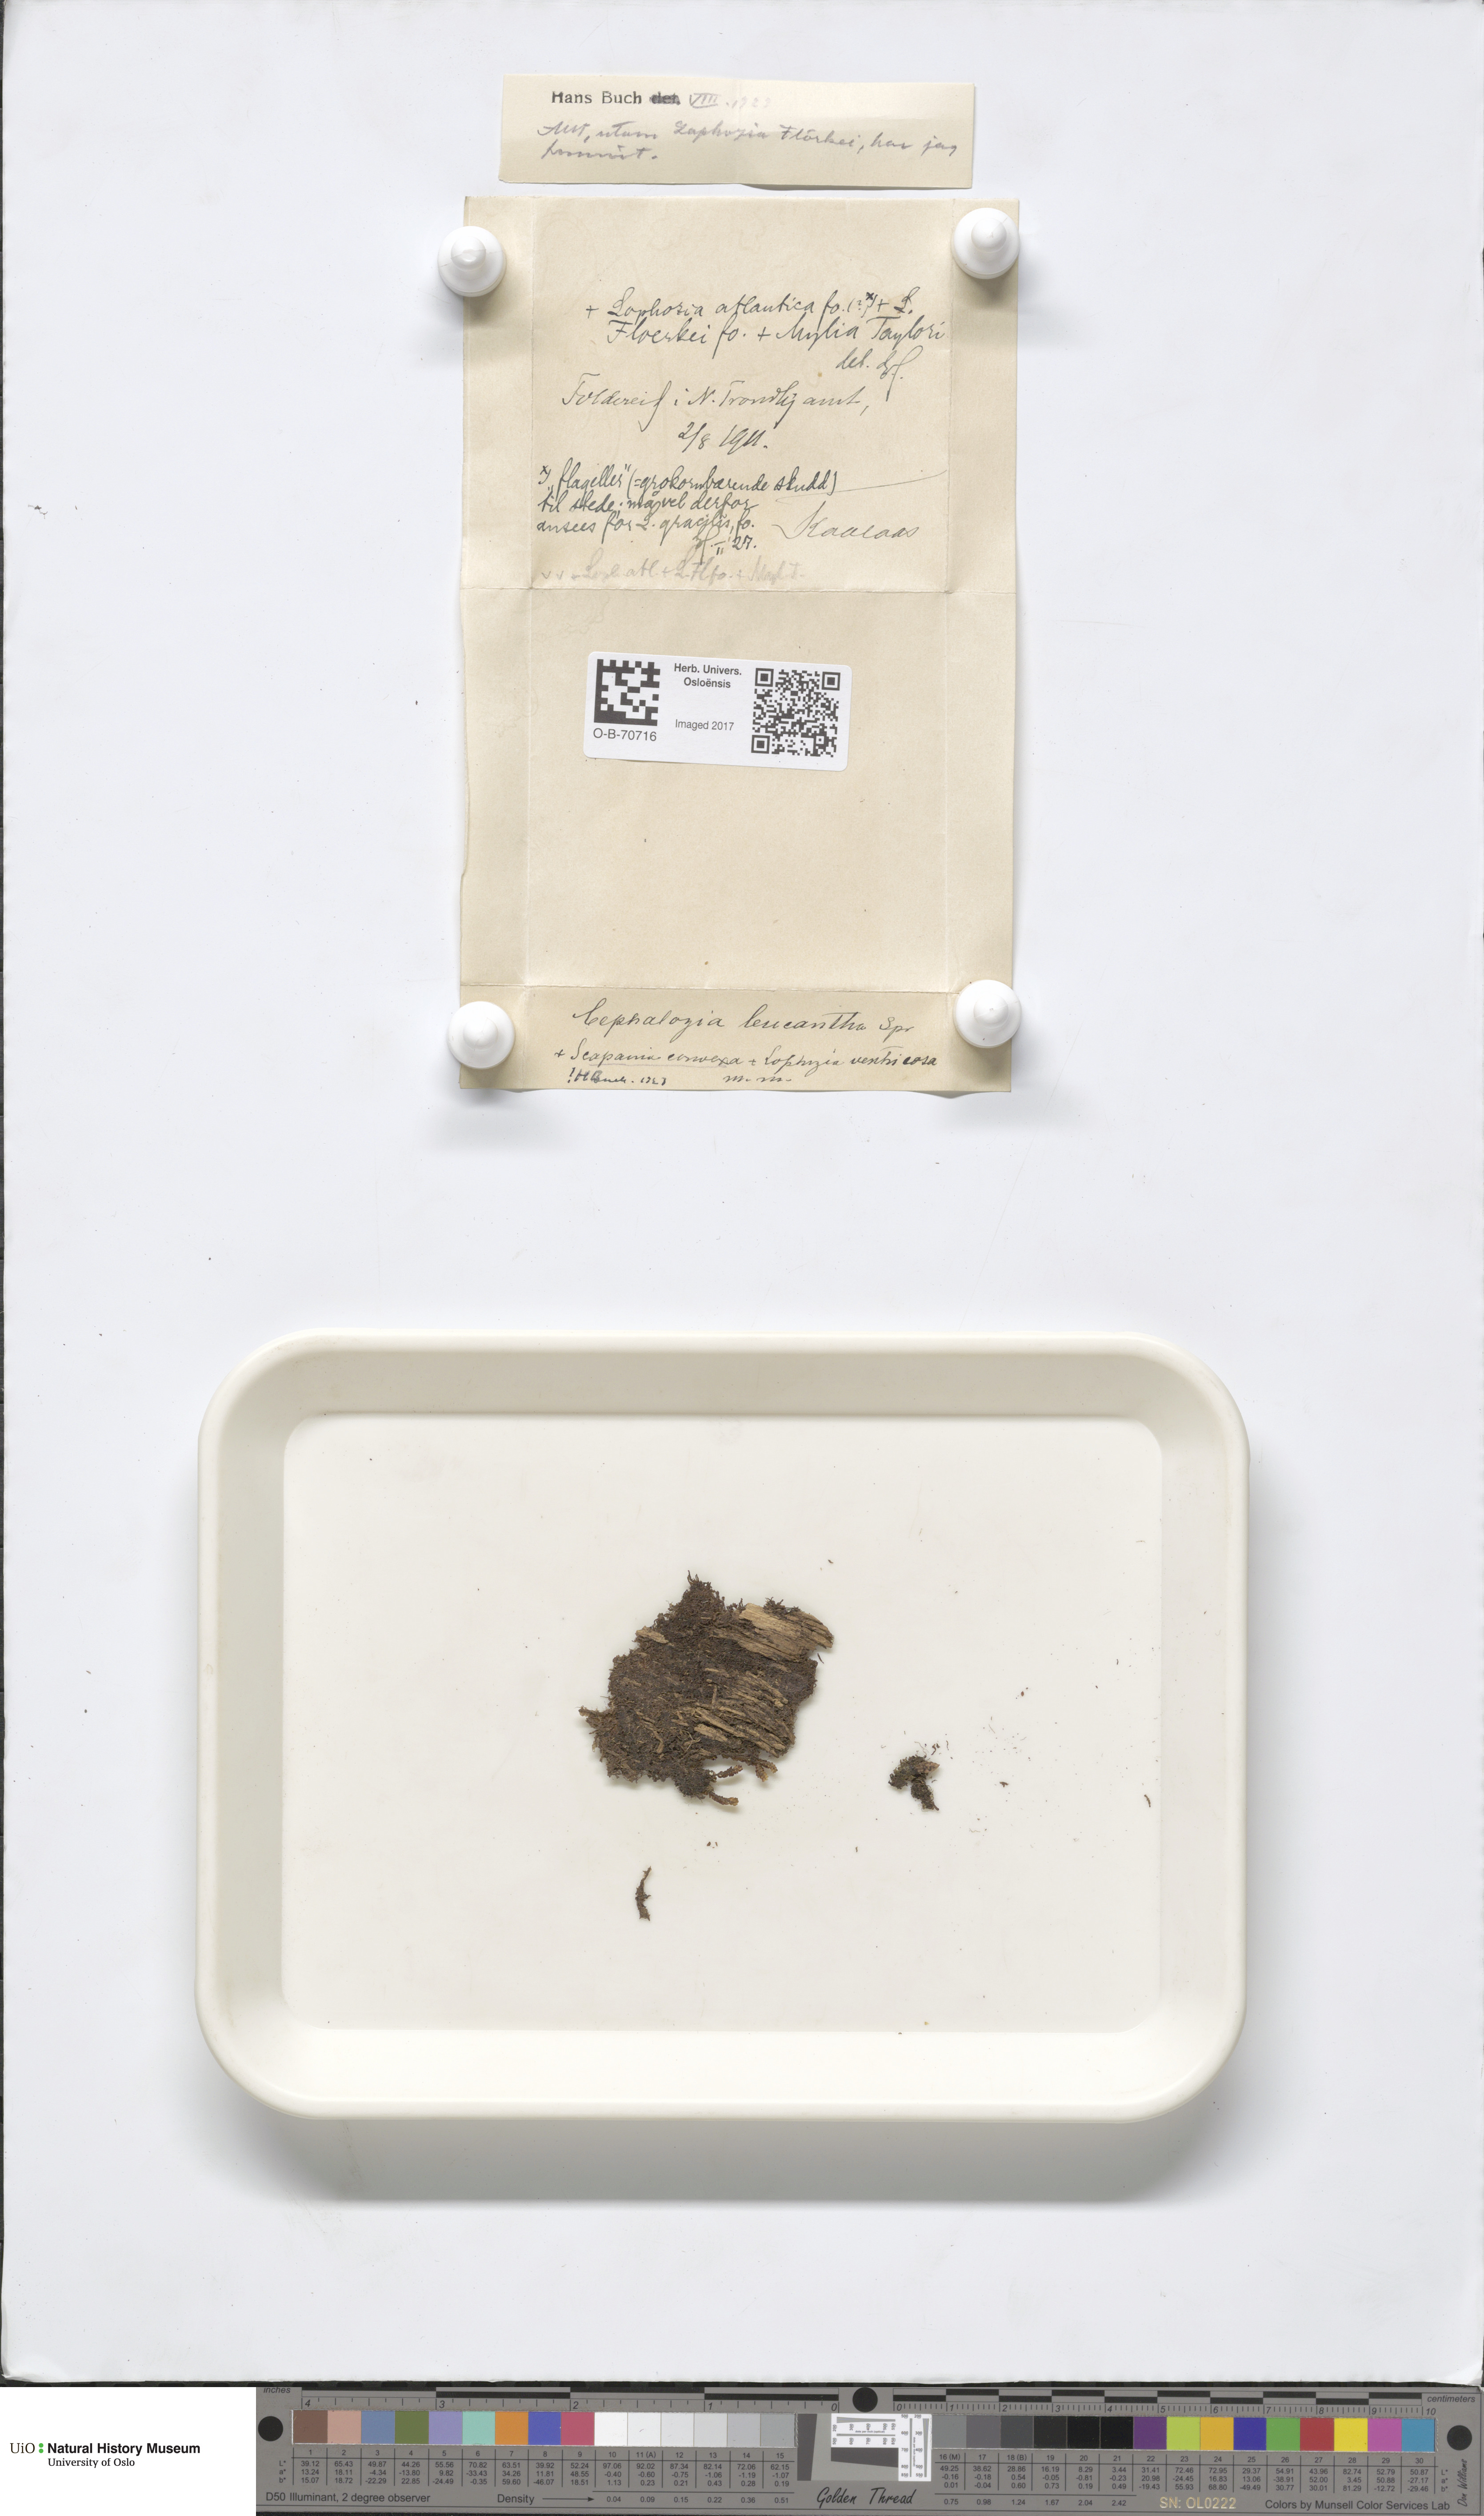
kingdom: Plantae
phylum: Marchantiophyta
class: Jungermanniopsida
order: Jungermanniales
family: Cephaloziaceae
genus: Fuscocephaloziopsis
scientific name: Fuscocephaloziopsis leucantha
